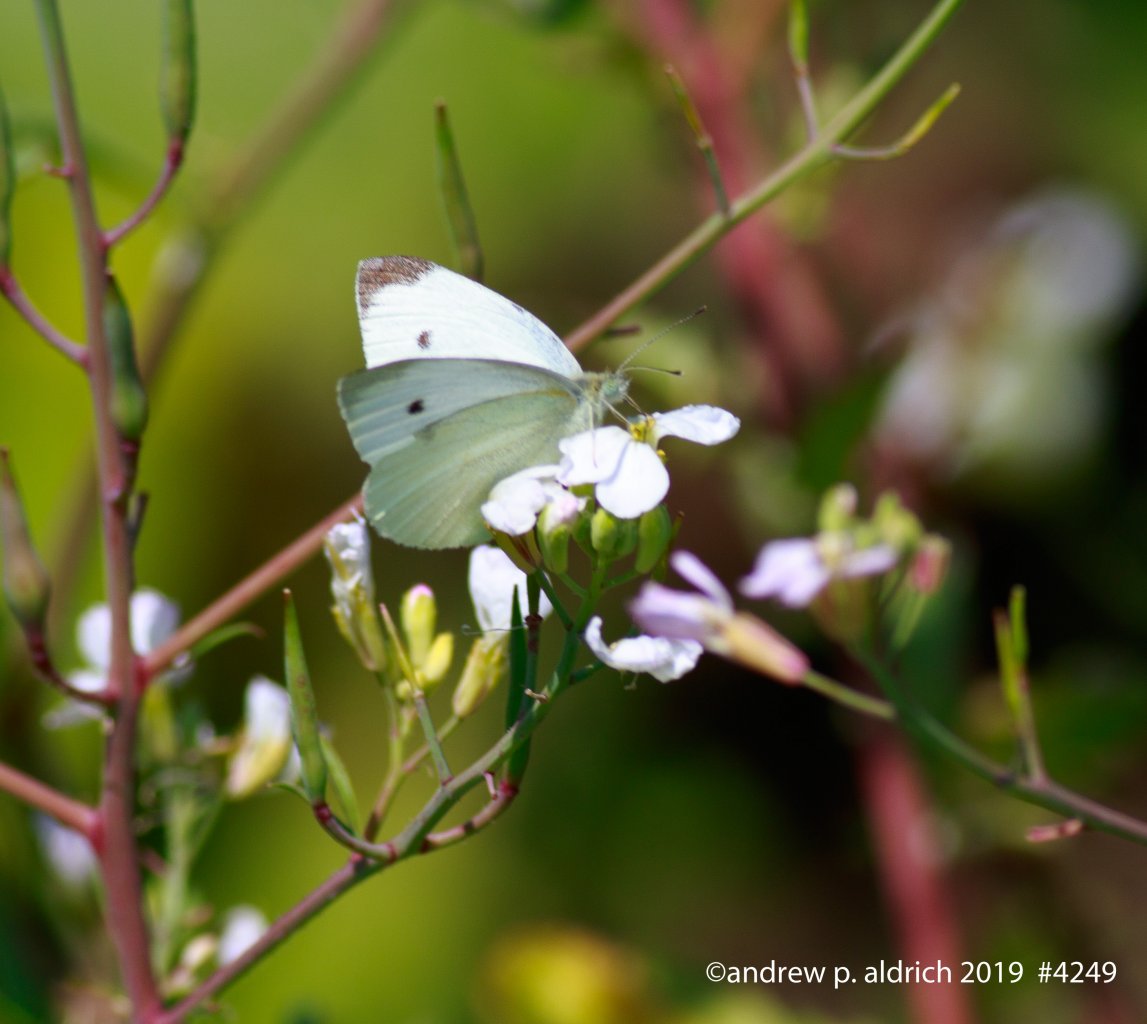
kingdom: Animalia
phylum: Arthropoda
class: Insecta
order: Lepidoptera
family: Pieridae
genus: Pieris
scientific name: Pieris rapae
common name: Cabbage White
